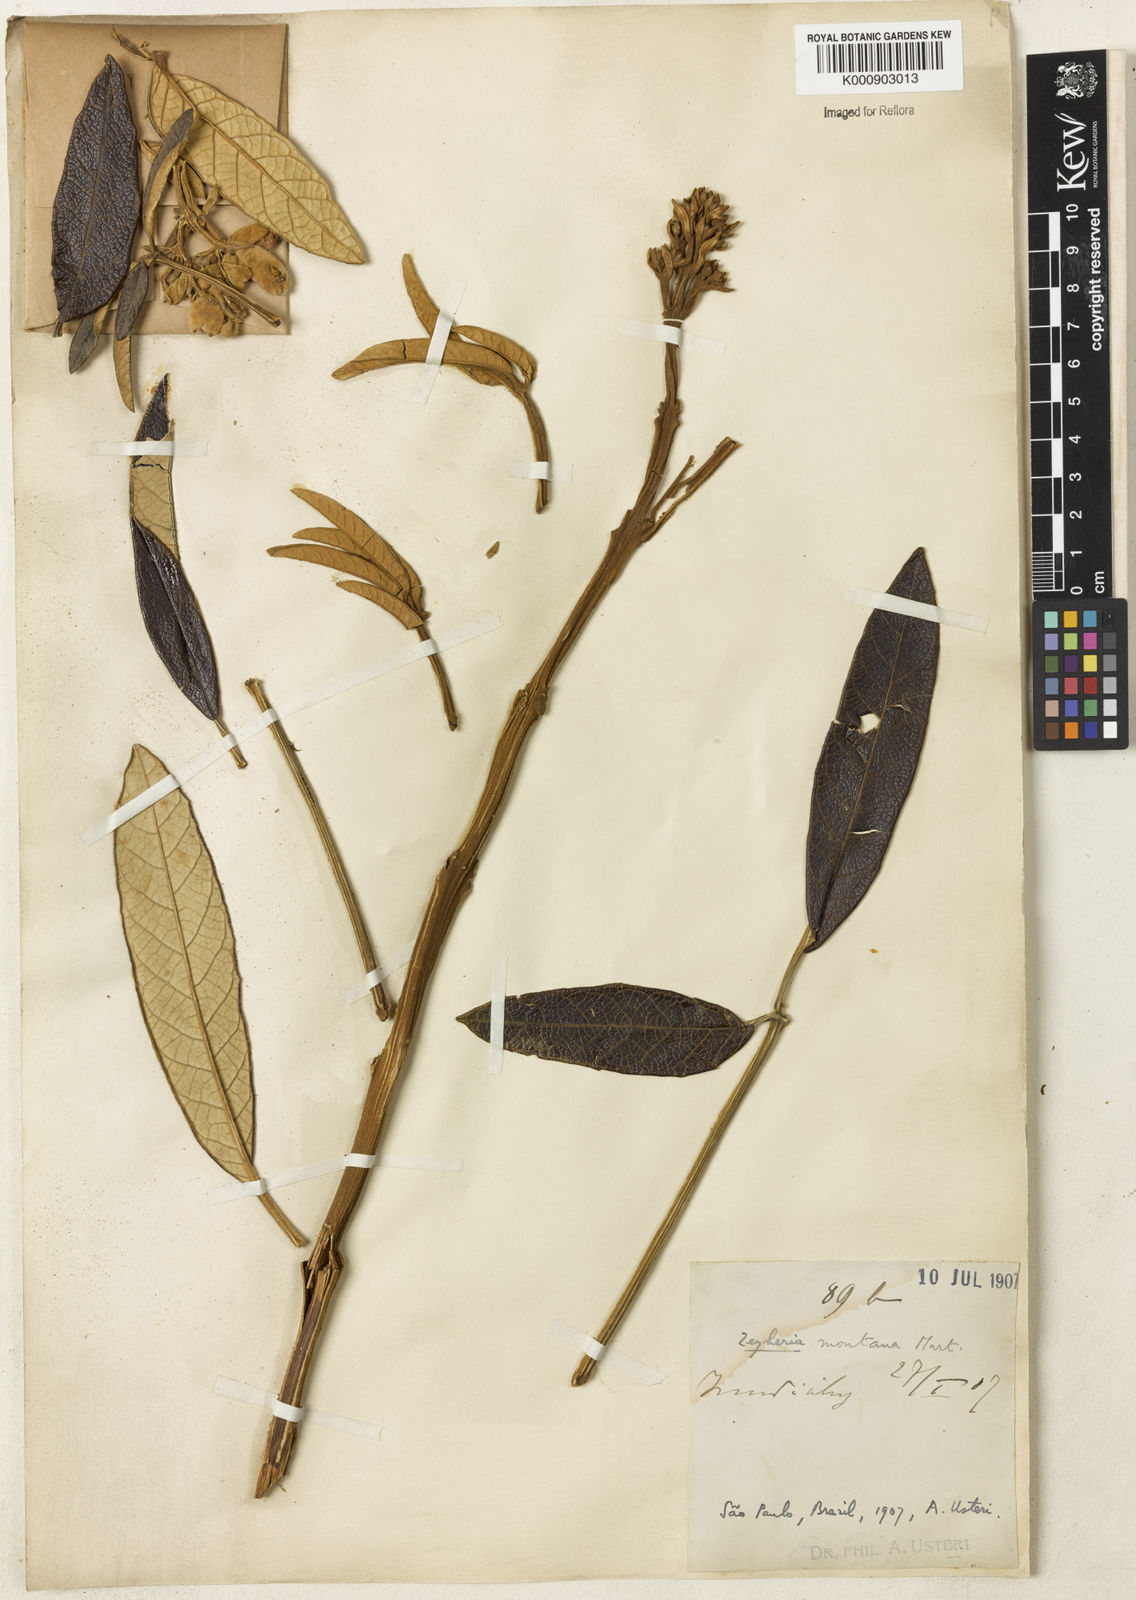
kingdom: Plantae
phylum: Tracheophyta
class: Magnoliopsida
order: Lamiales
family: Bignoniaceae
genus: Zeyheria
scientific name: Zeyheria montana
